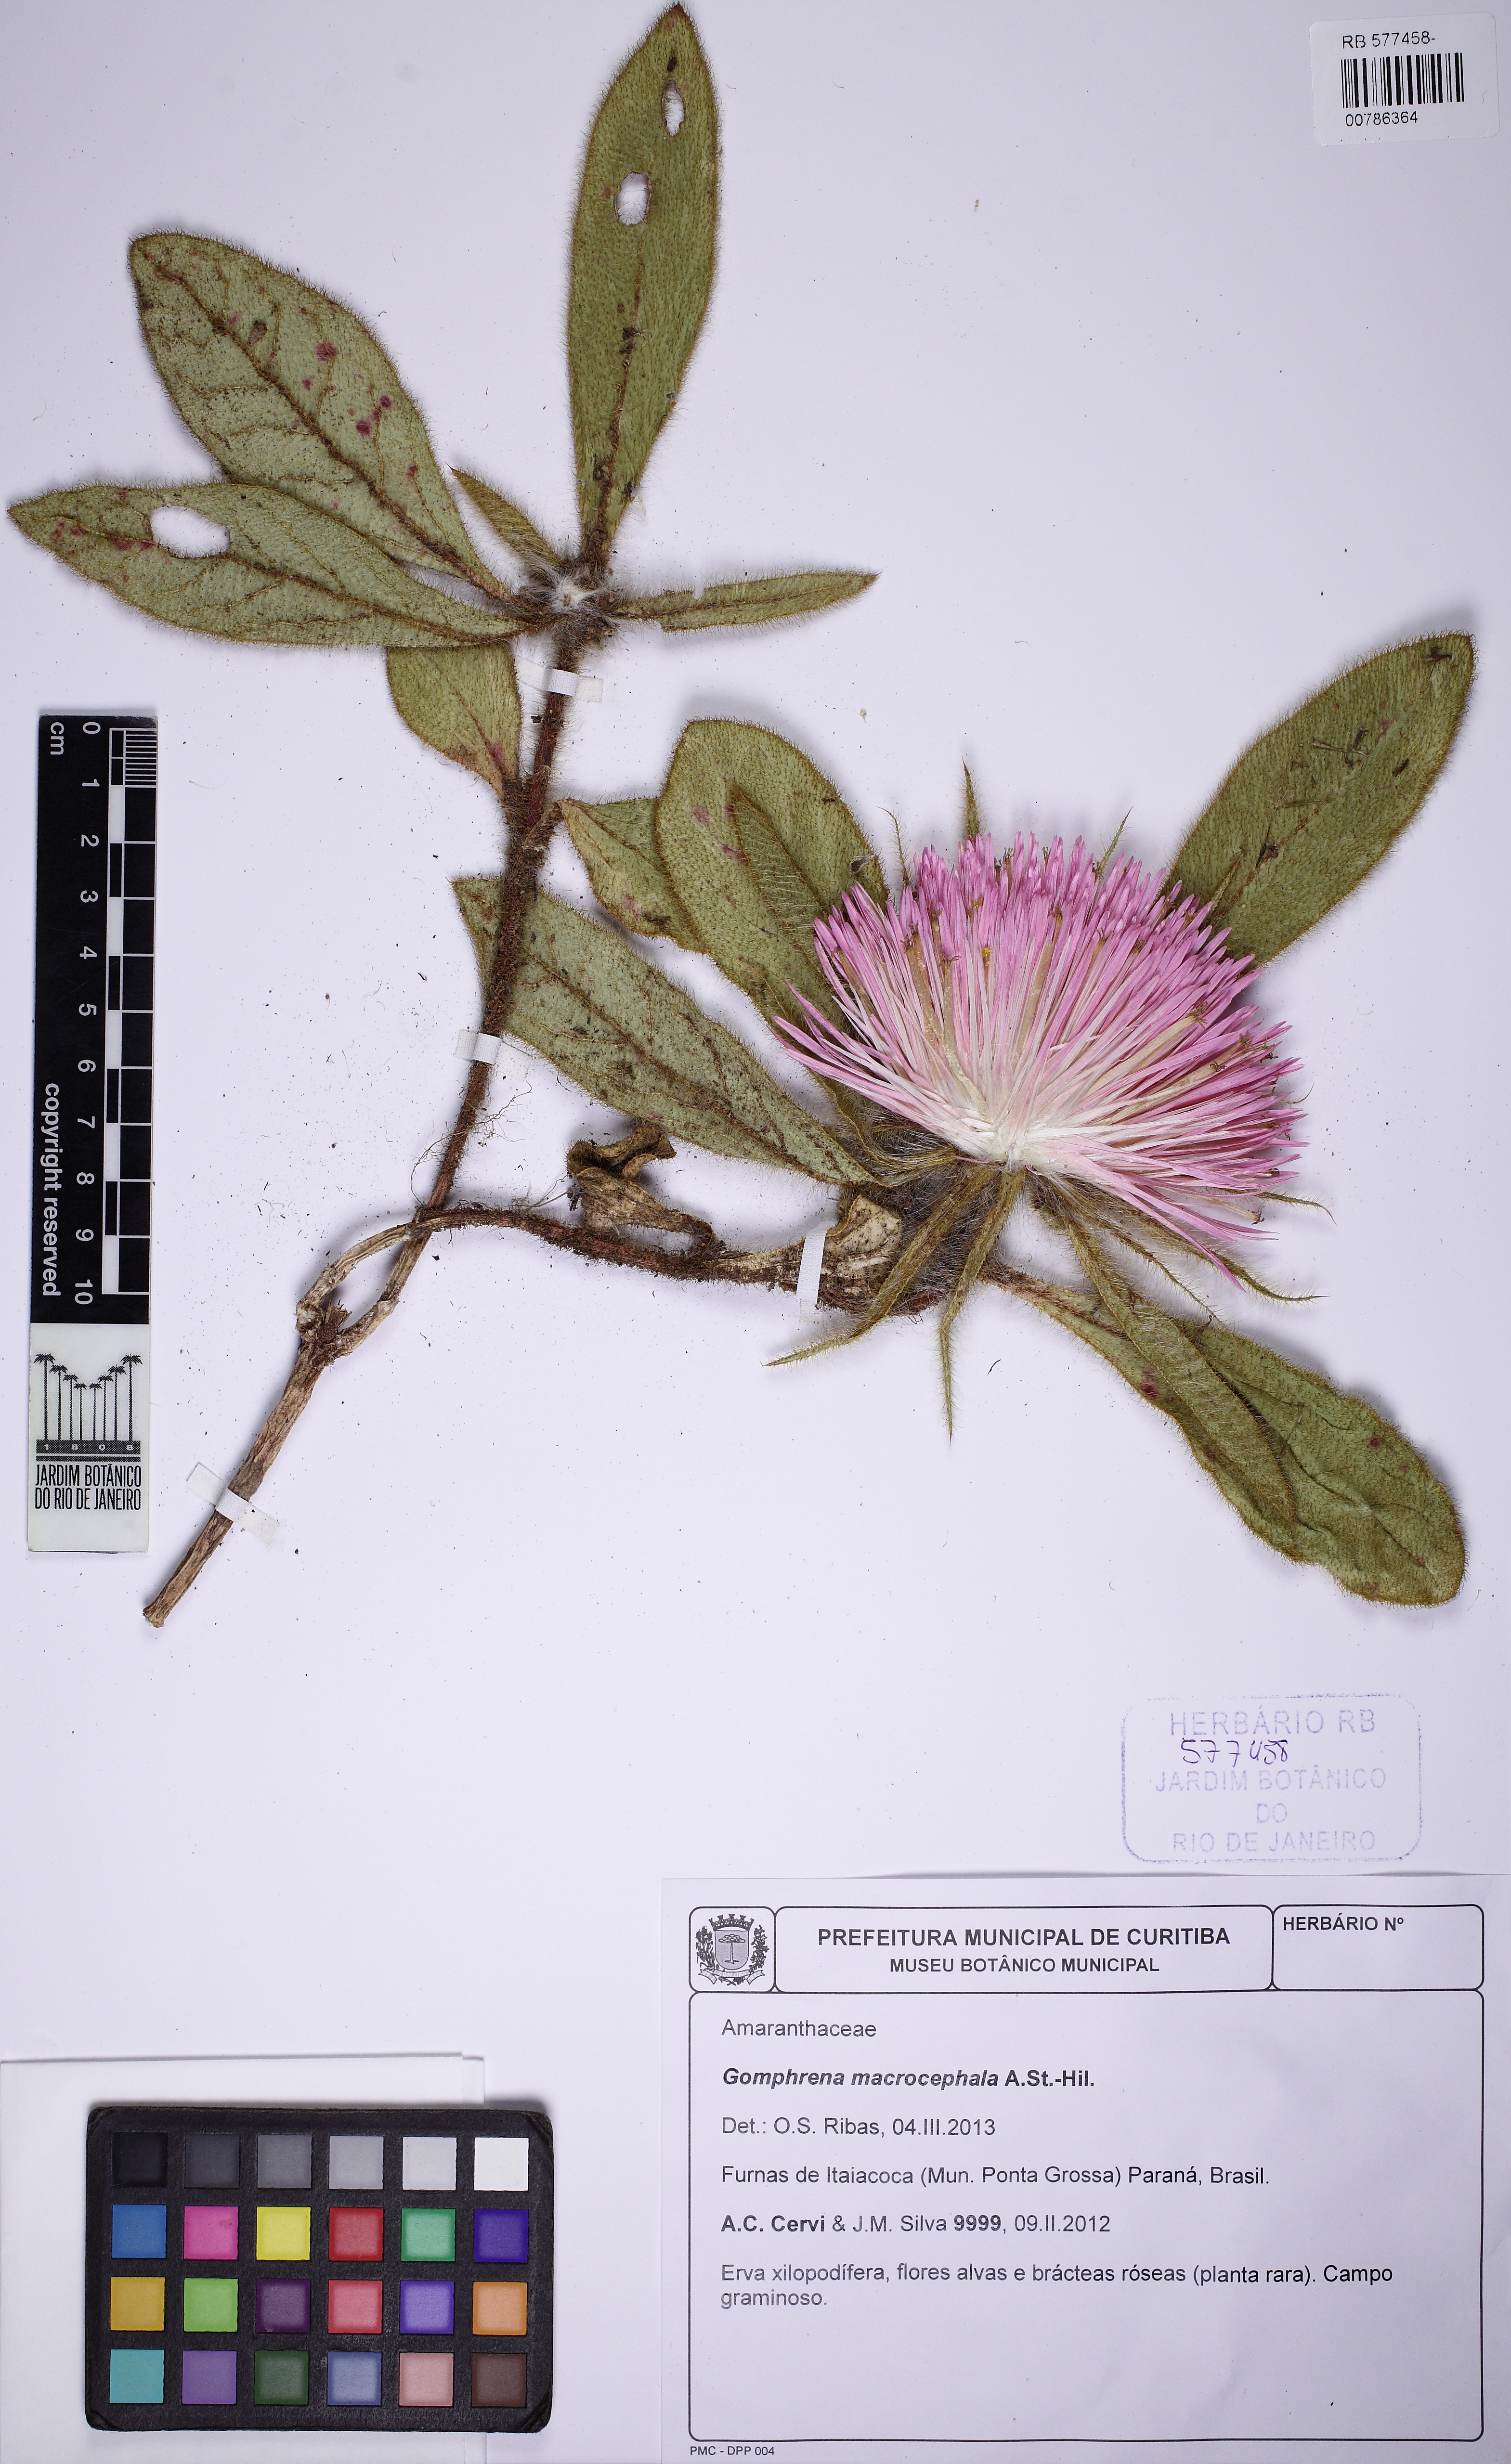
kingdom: Plantae
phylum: Tracheophyta
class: Magnoliopsida
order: Caryophyllales
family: Amaranthaceae
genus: Gomphrena
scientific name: Gomphrena macrocephala
